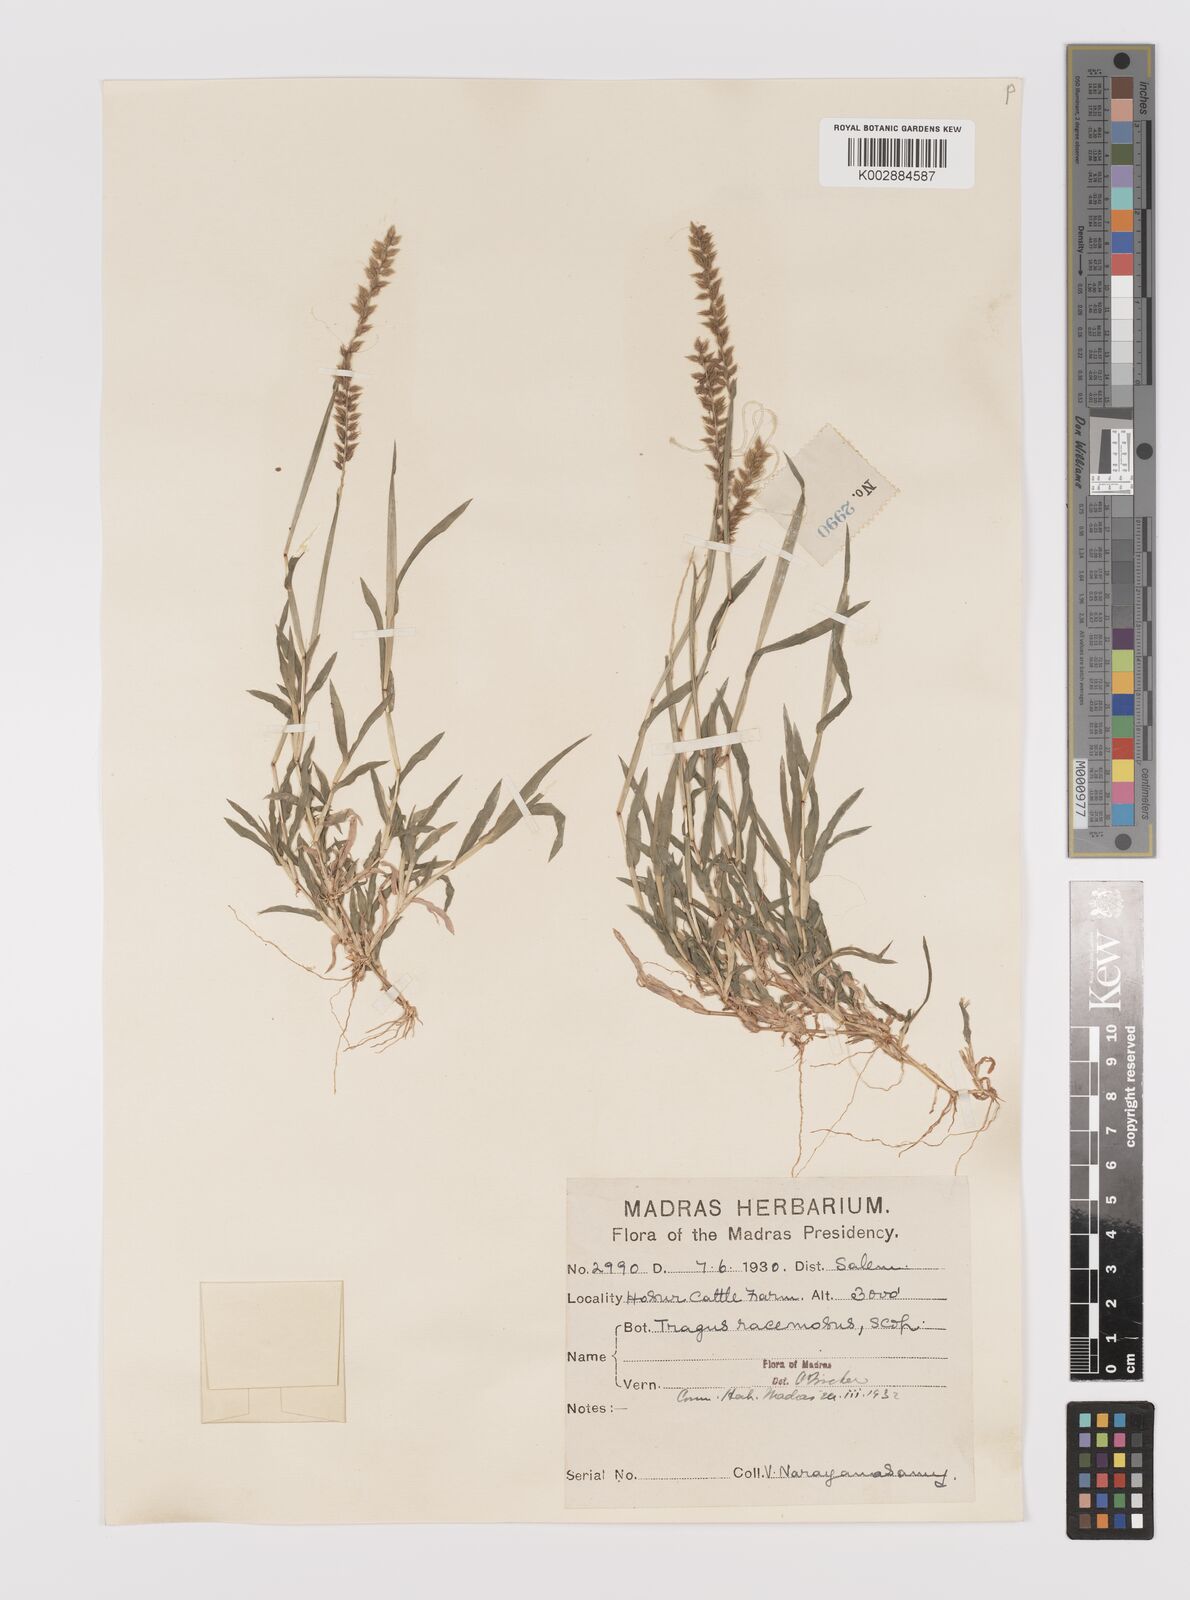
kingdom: Plantae
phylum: Tracheophyta
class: Liliopsida
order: Poales
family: Poaceae
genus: Tragus
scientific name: Tragus mongolorum
